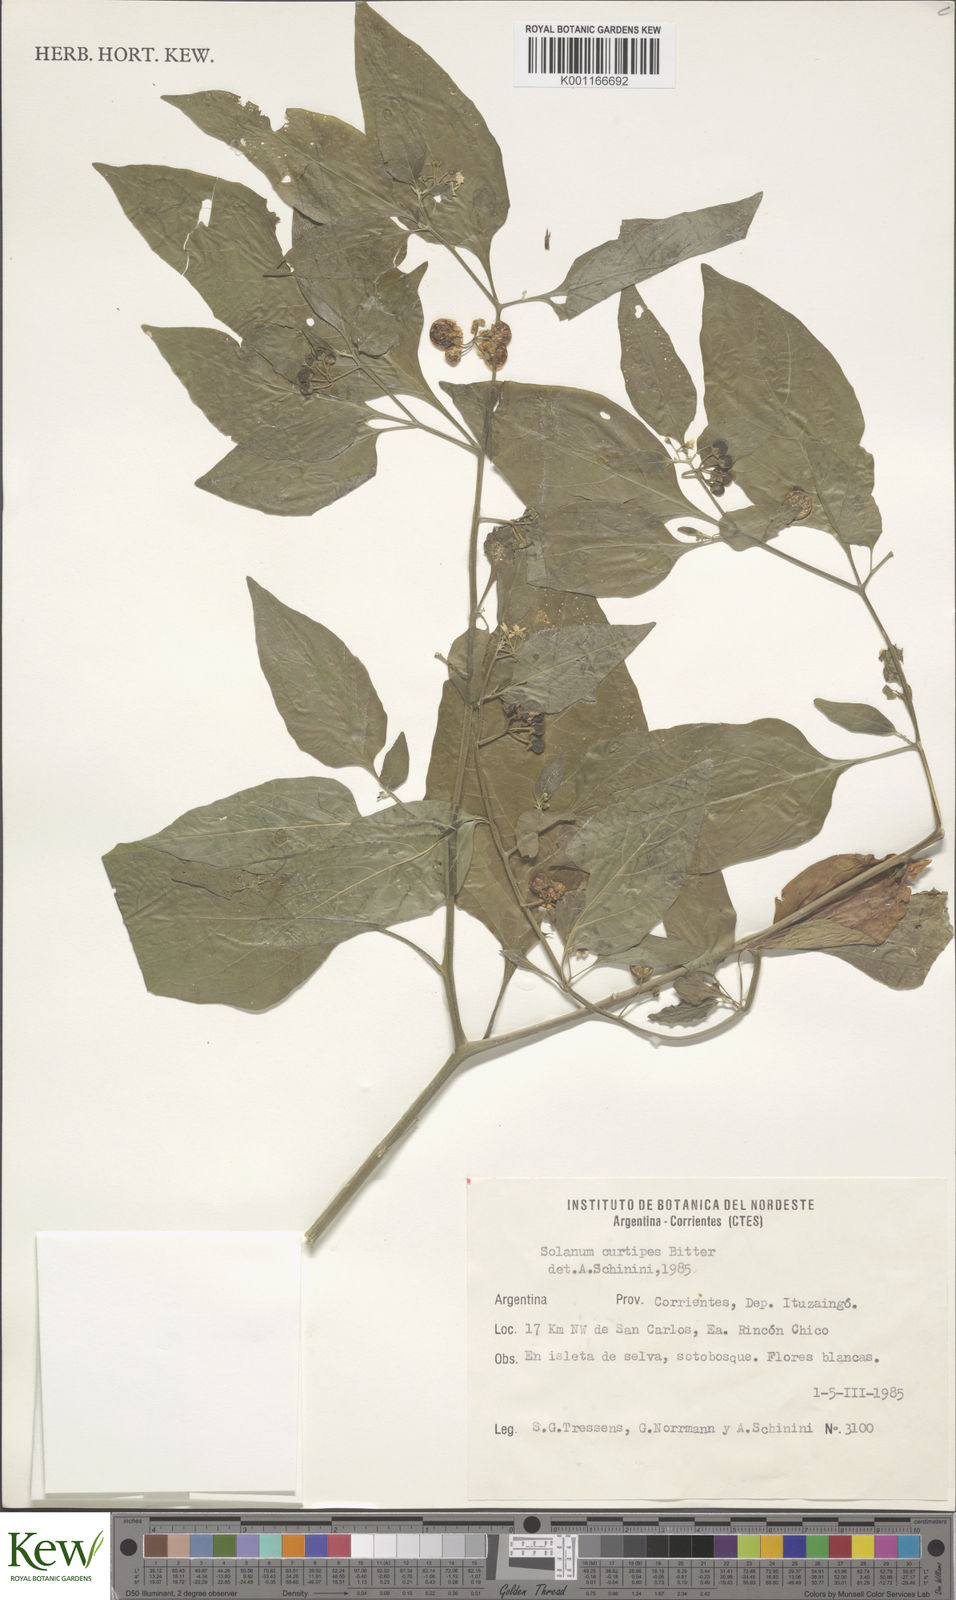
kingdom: Plantae
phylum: Tracheophyta
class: Magnoliopsida
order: Solanales
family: Solanaceae
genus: Solanum
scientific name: Solanum americanum
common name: American black nightshade
